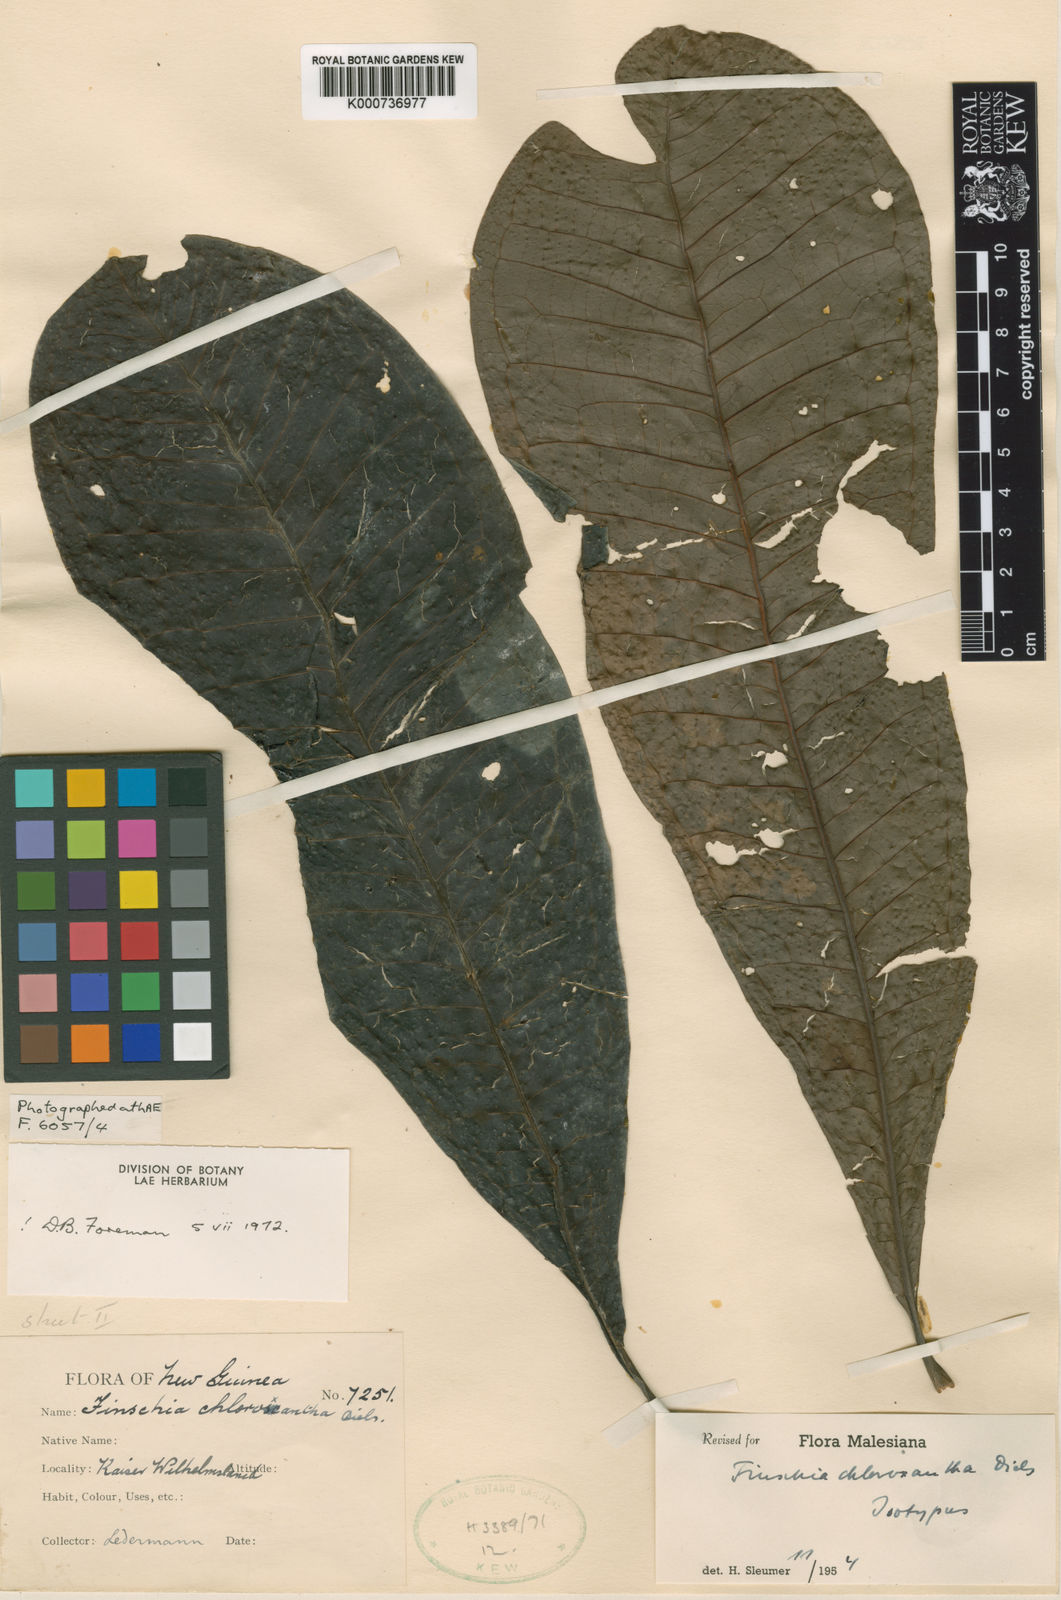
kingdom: Plantae
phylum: Tracheophyta
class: Magnoliopsida
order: Proteales
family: Proteaceae
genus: Finschia
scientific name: Finschia chloroxantha
